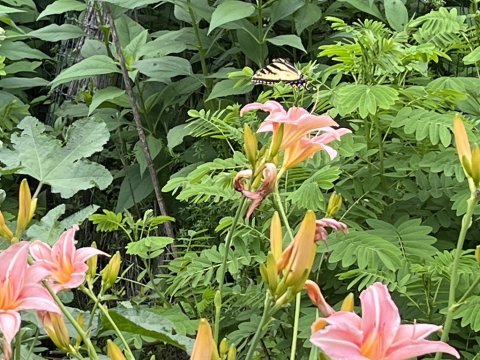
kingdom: Animalia
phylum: Arthropoda
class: Insecta
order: Lepidoptera
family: Papilionidae
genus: Pterourus
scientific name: Pterourus
